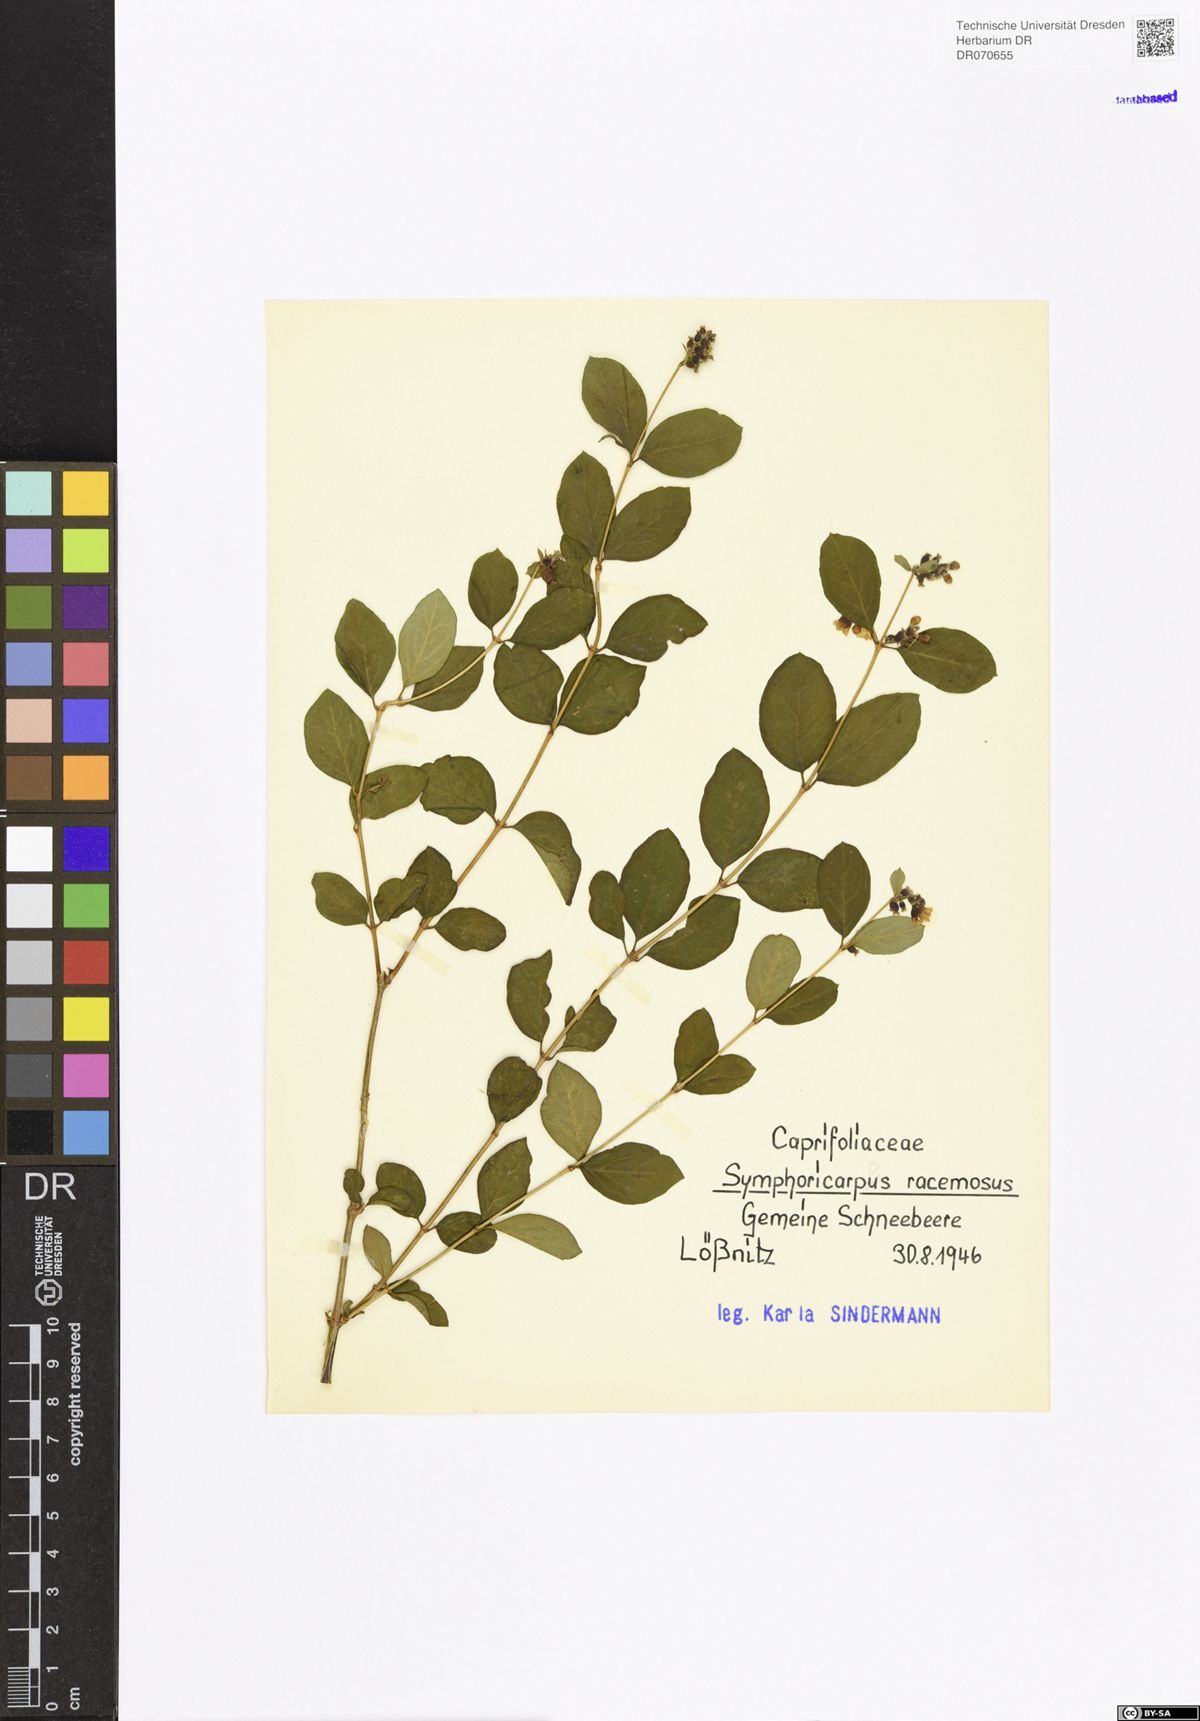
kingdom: Plantae
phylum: Tracheophyta
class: Magnoliopsida
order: Dipsacales
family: Caprifoliaceae
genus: Symphoricarpos
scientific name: Symphoricarpos albus
